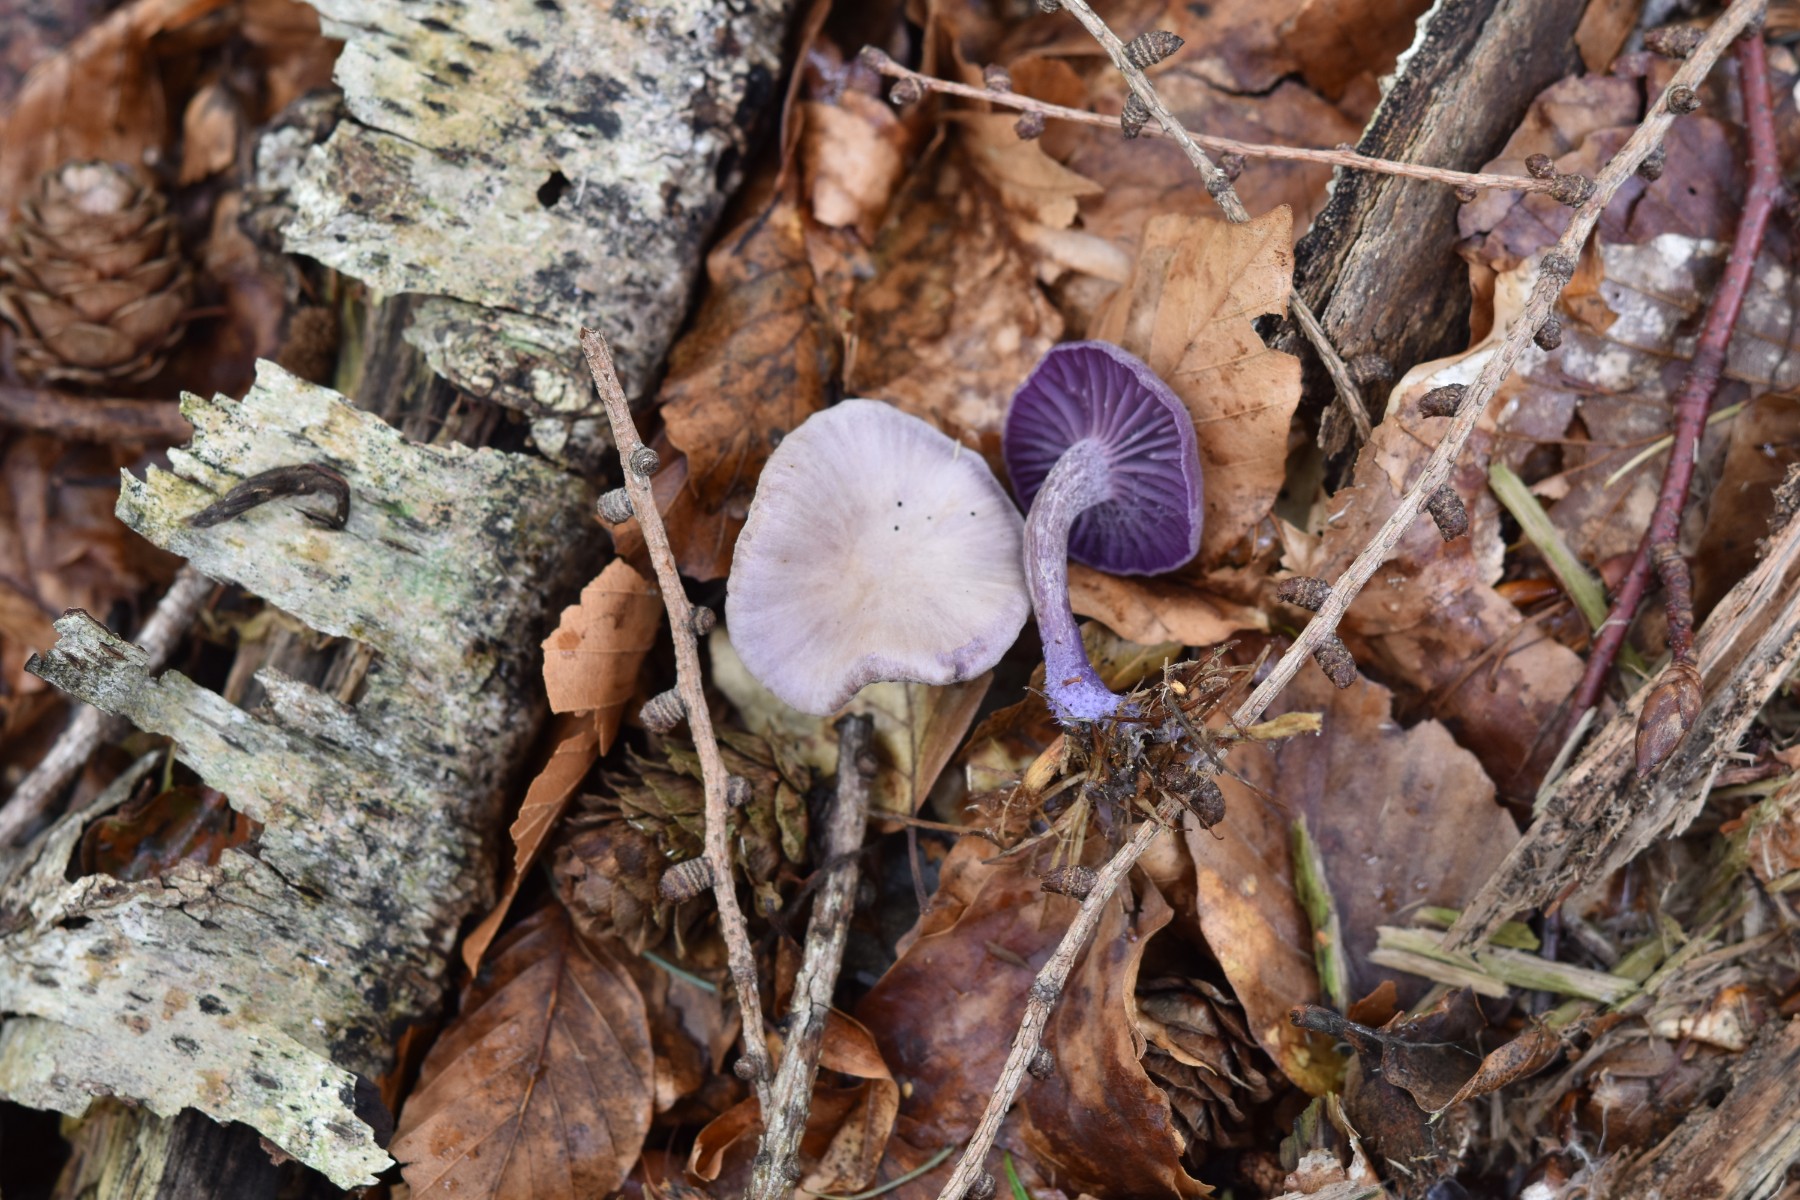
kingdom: Fungi
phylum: Basidiomycota
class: Agaricomycetes
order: Agaricales
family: Hydnangiaceae
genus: Laccaria
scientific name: Laccaria amethystina
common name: violet ametysthat
